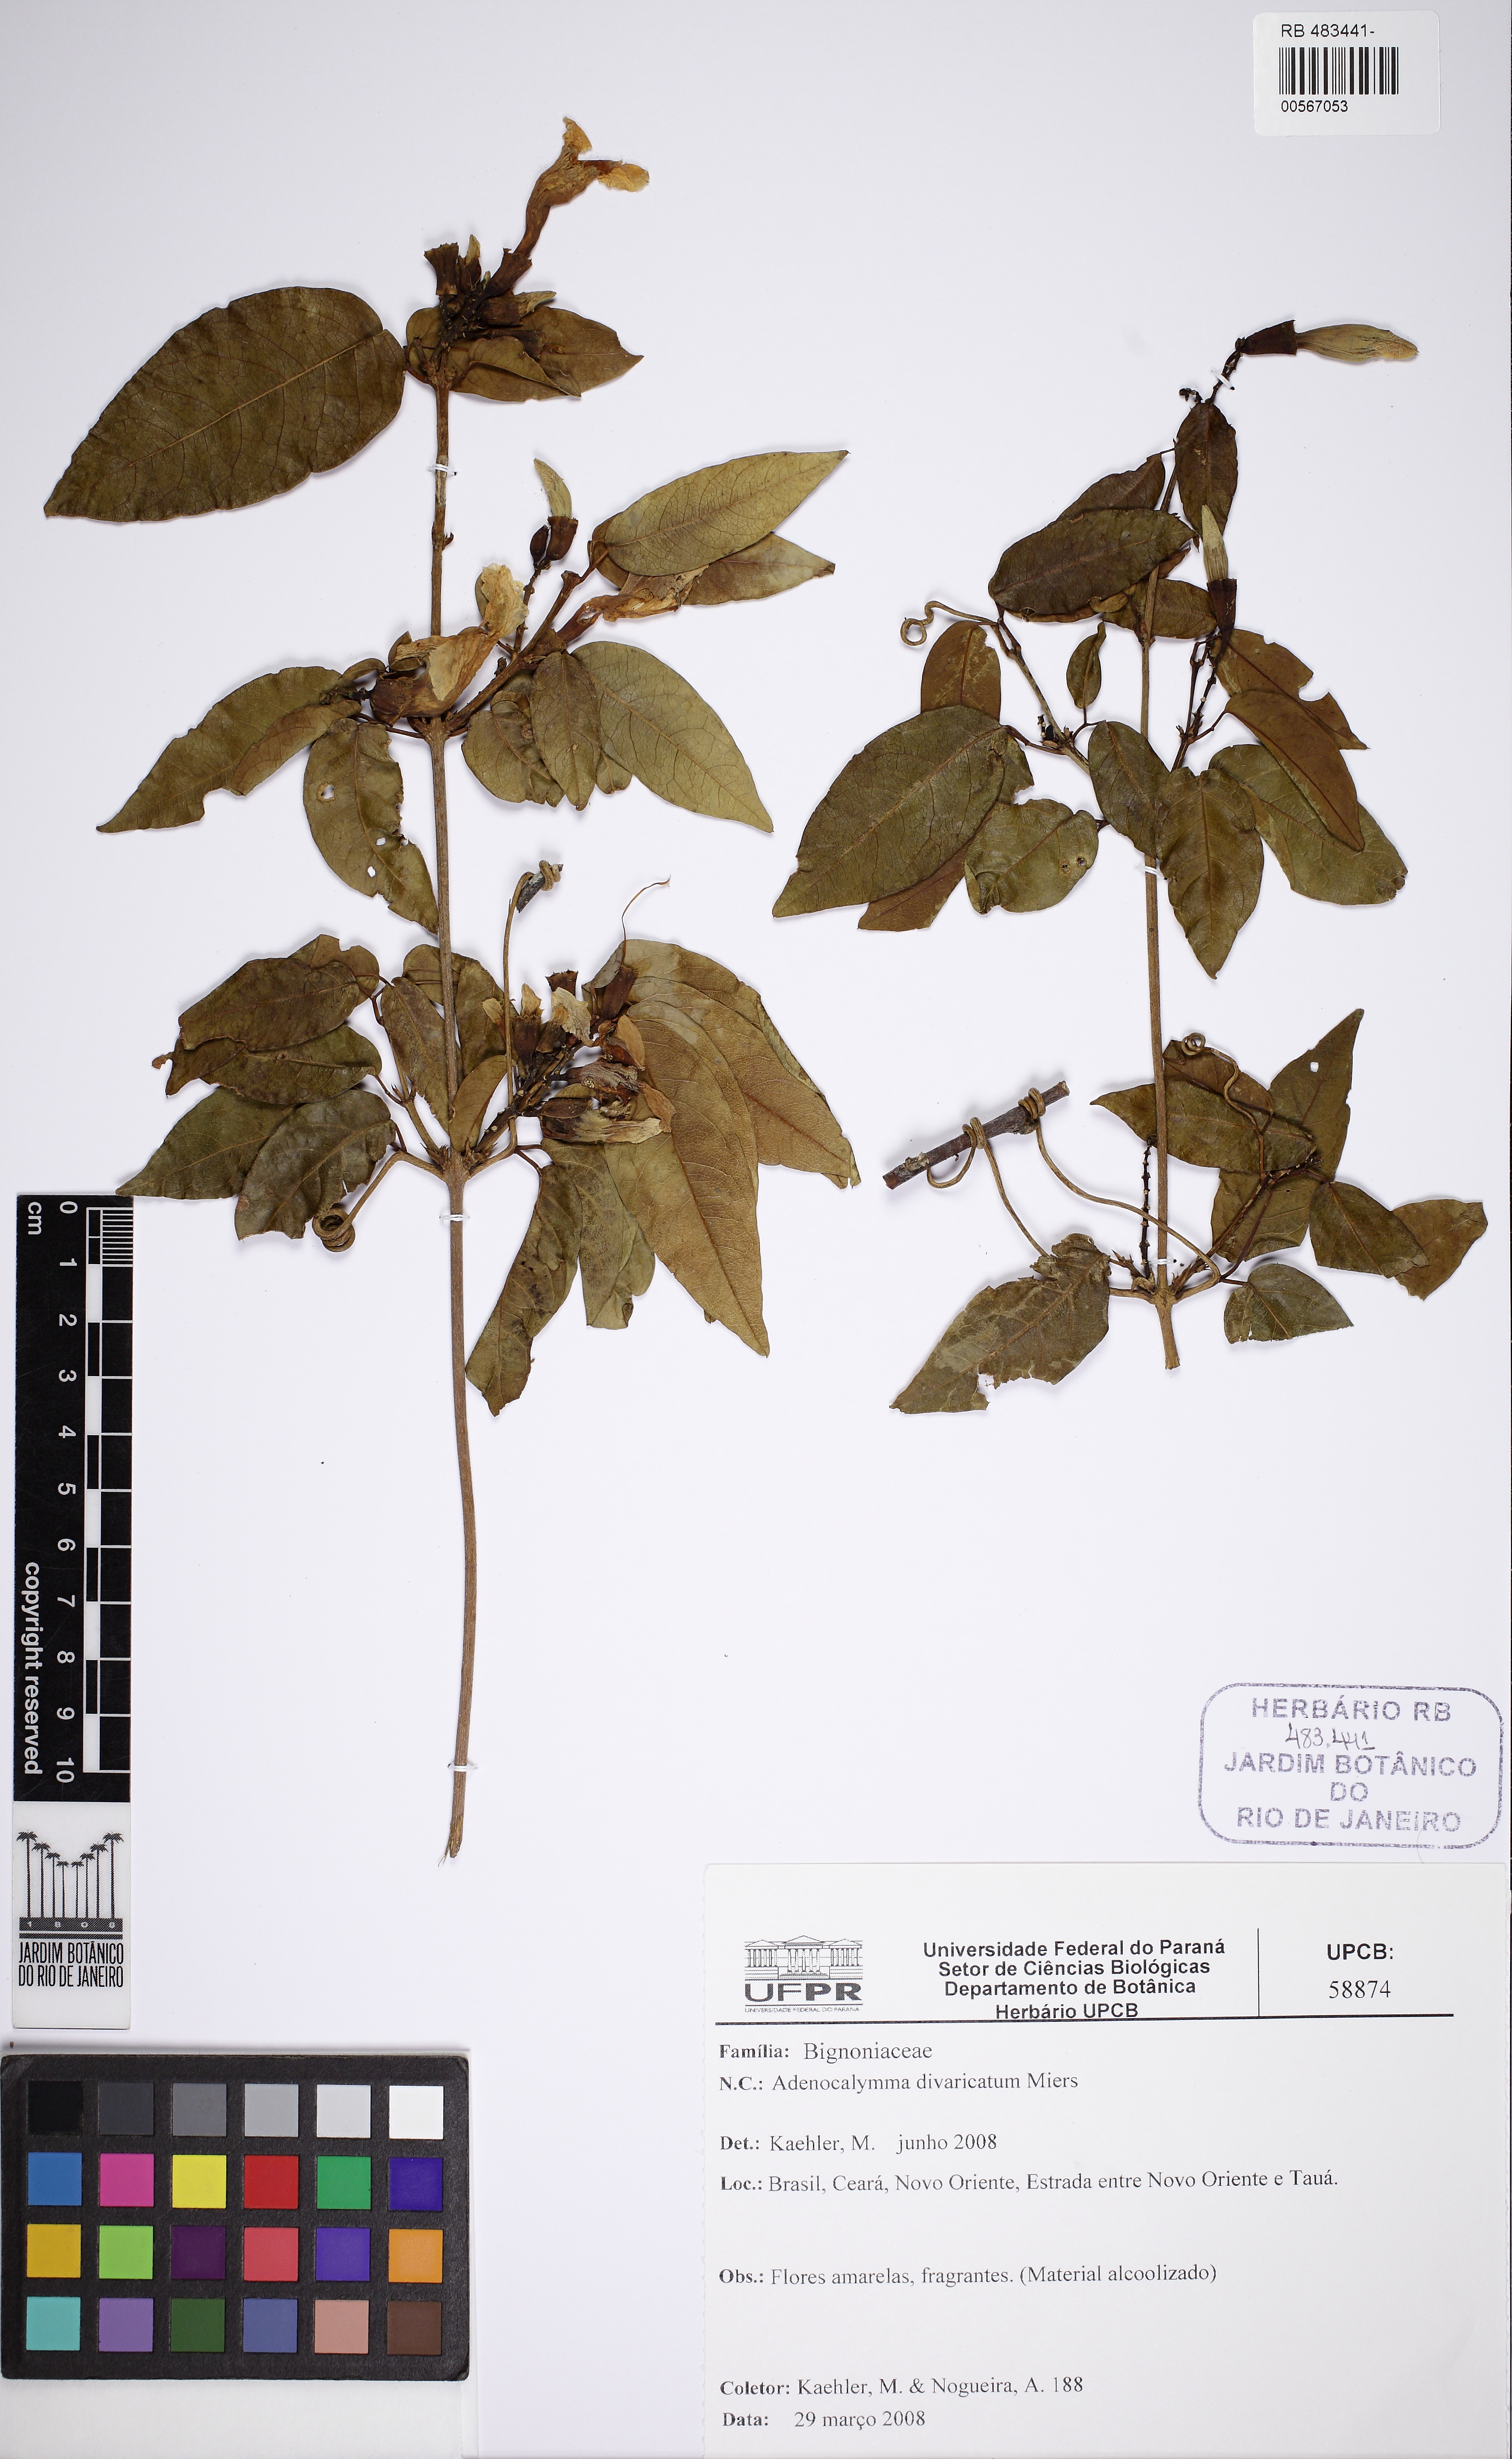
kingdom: Plantae
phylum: Tracheophyta
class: Magnoliopsida
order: Lamiales
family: Bignoniaceae
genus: Adenocalymma
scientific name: Adenocalymma divaricatum
